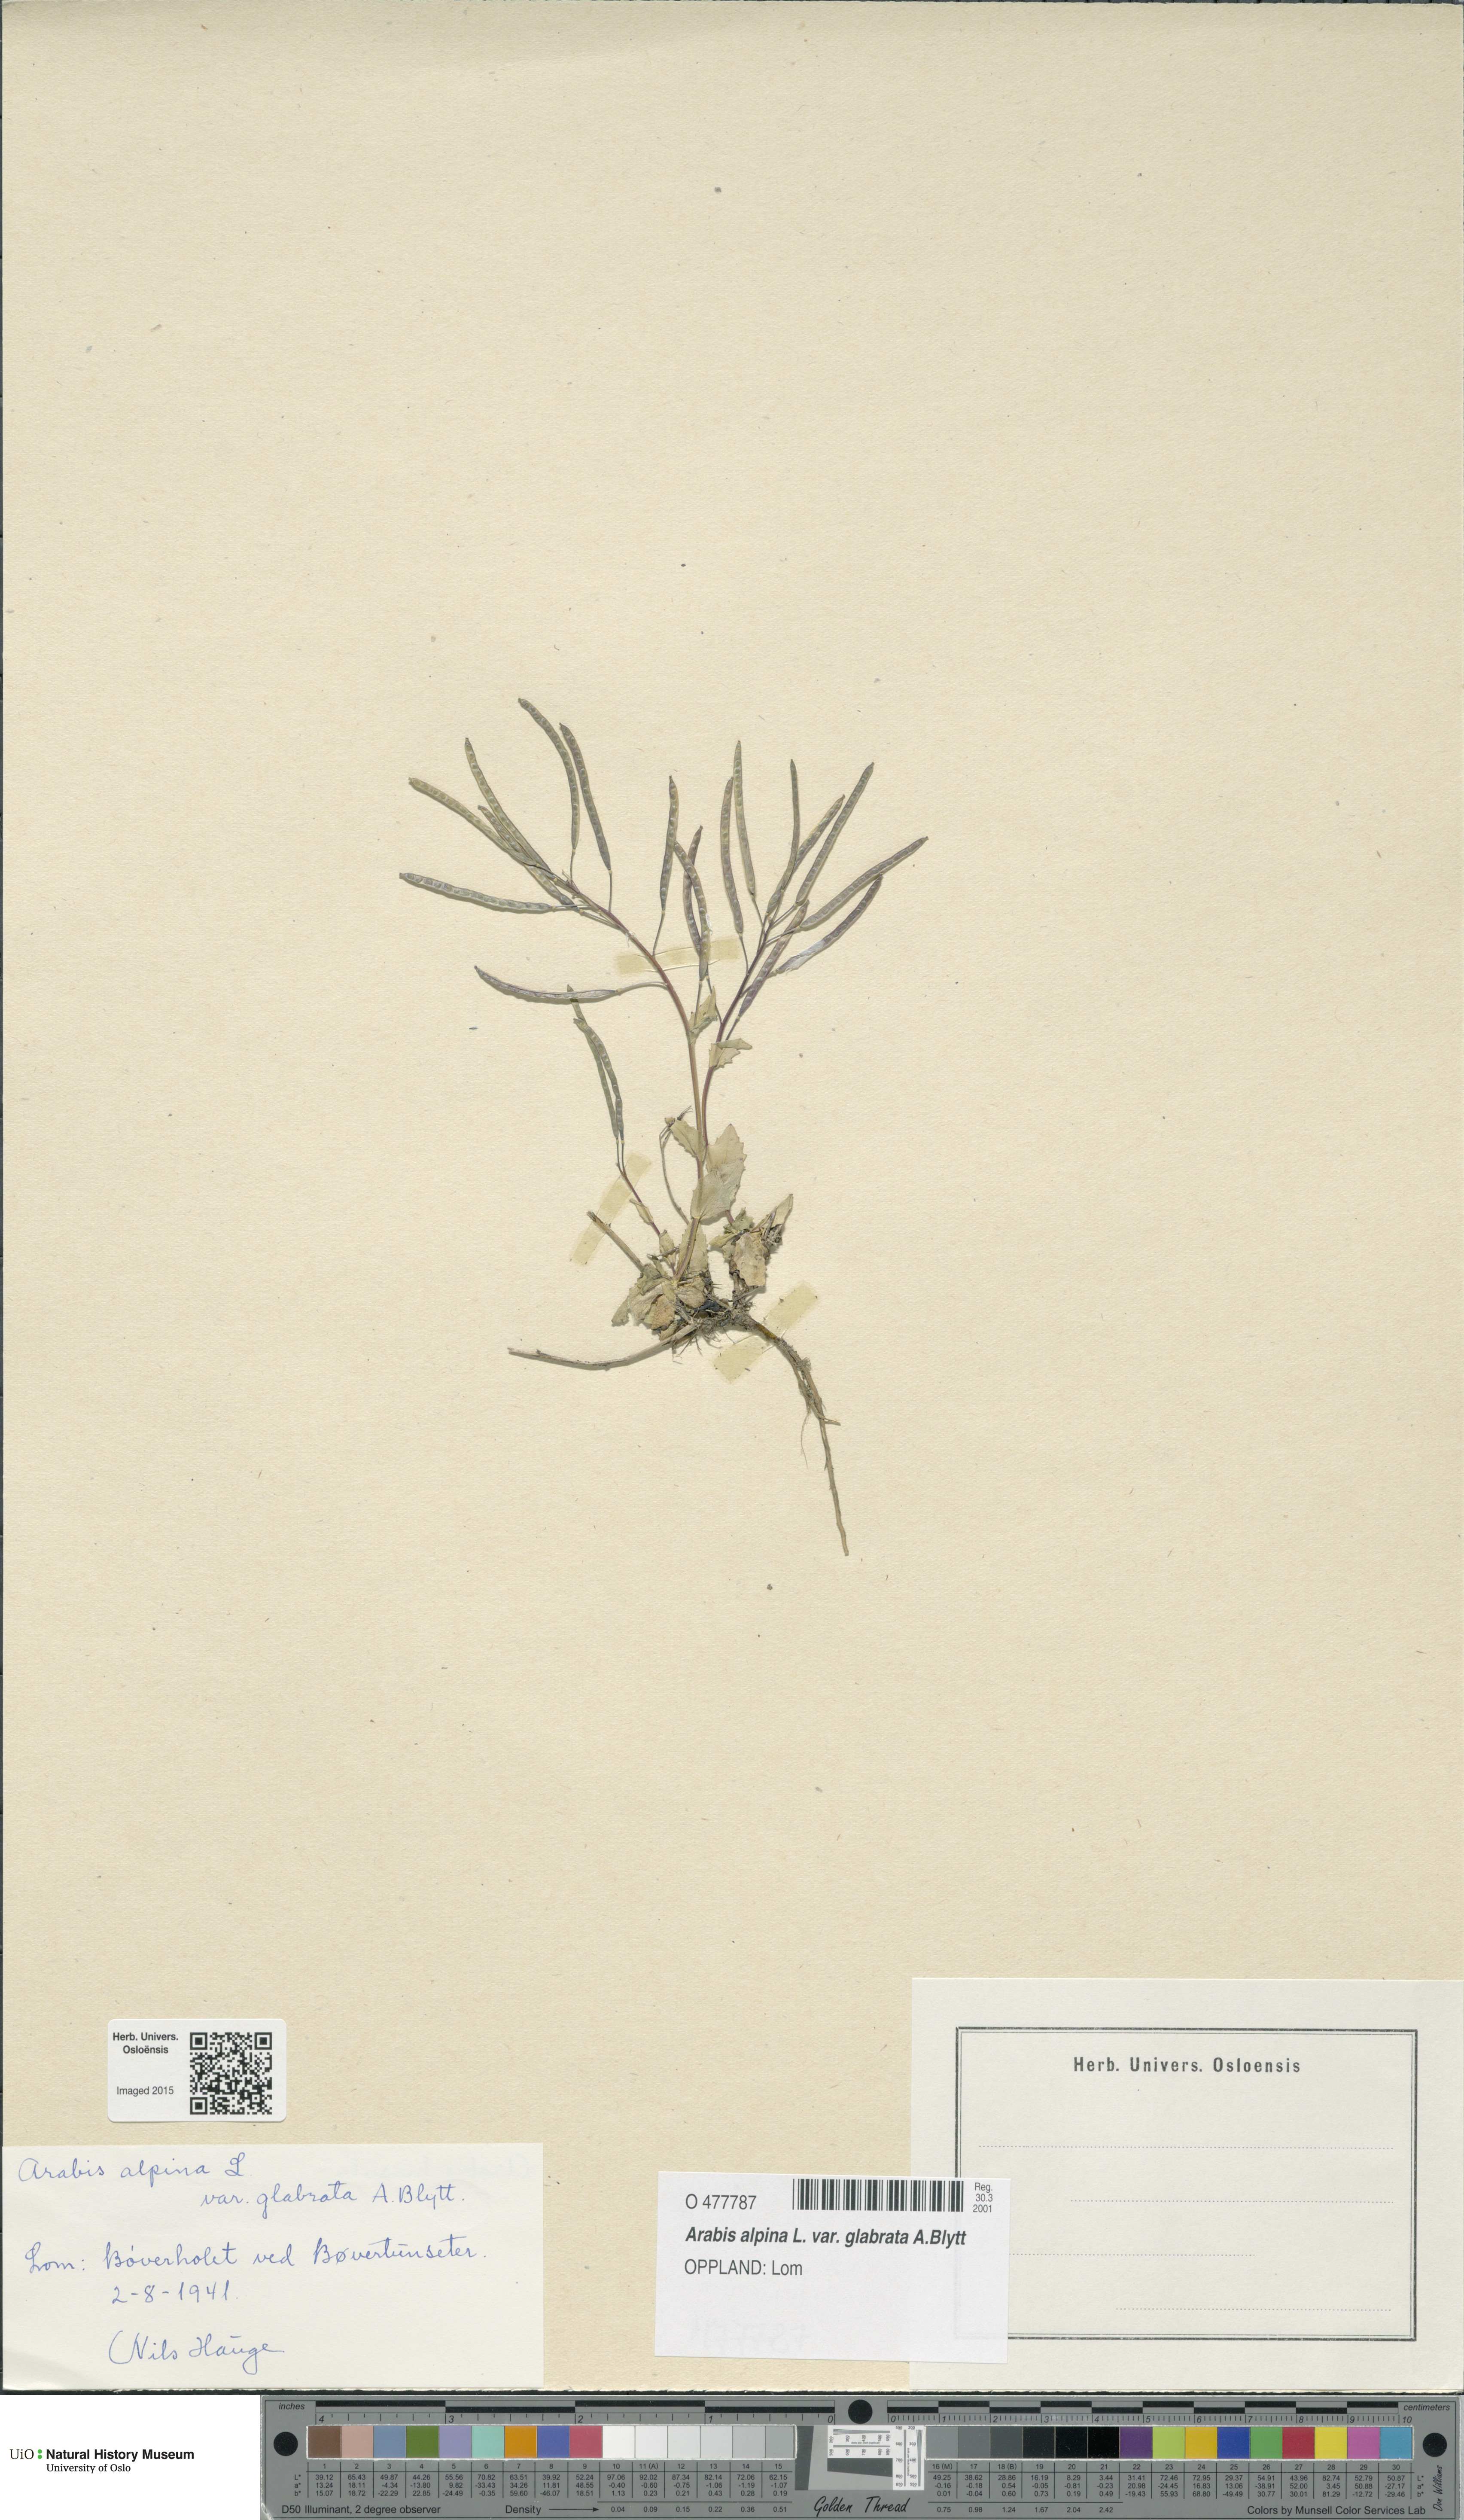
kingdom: Plantae
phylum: Tracheophyta
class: Magnoliopsida
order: Brassicales
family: Brassicaceae
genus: Arabis
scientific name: Arabis alpina
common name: Alpine rock-cress
